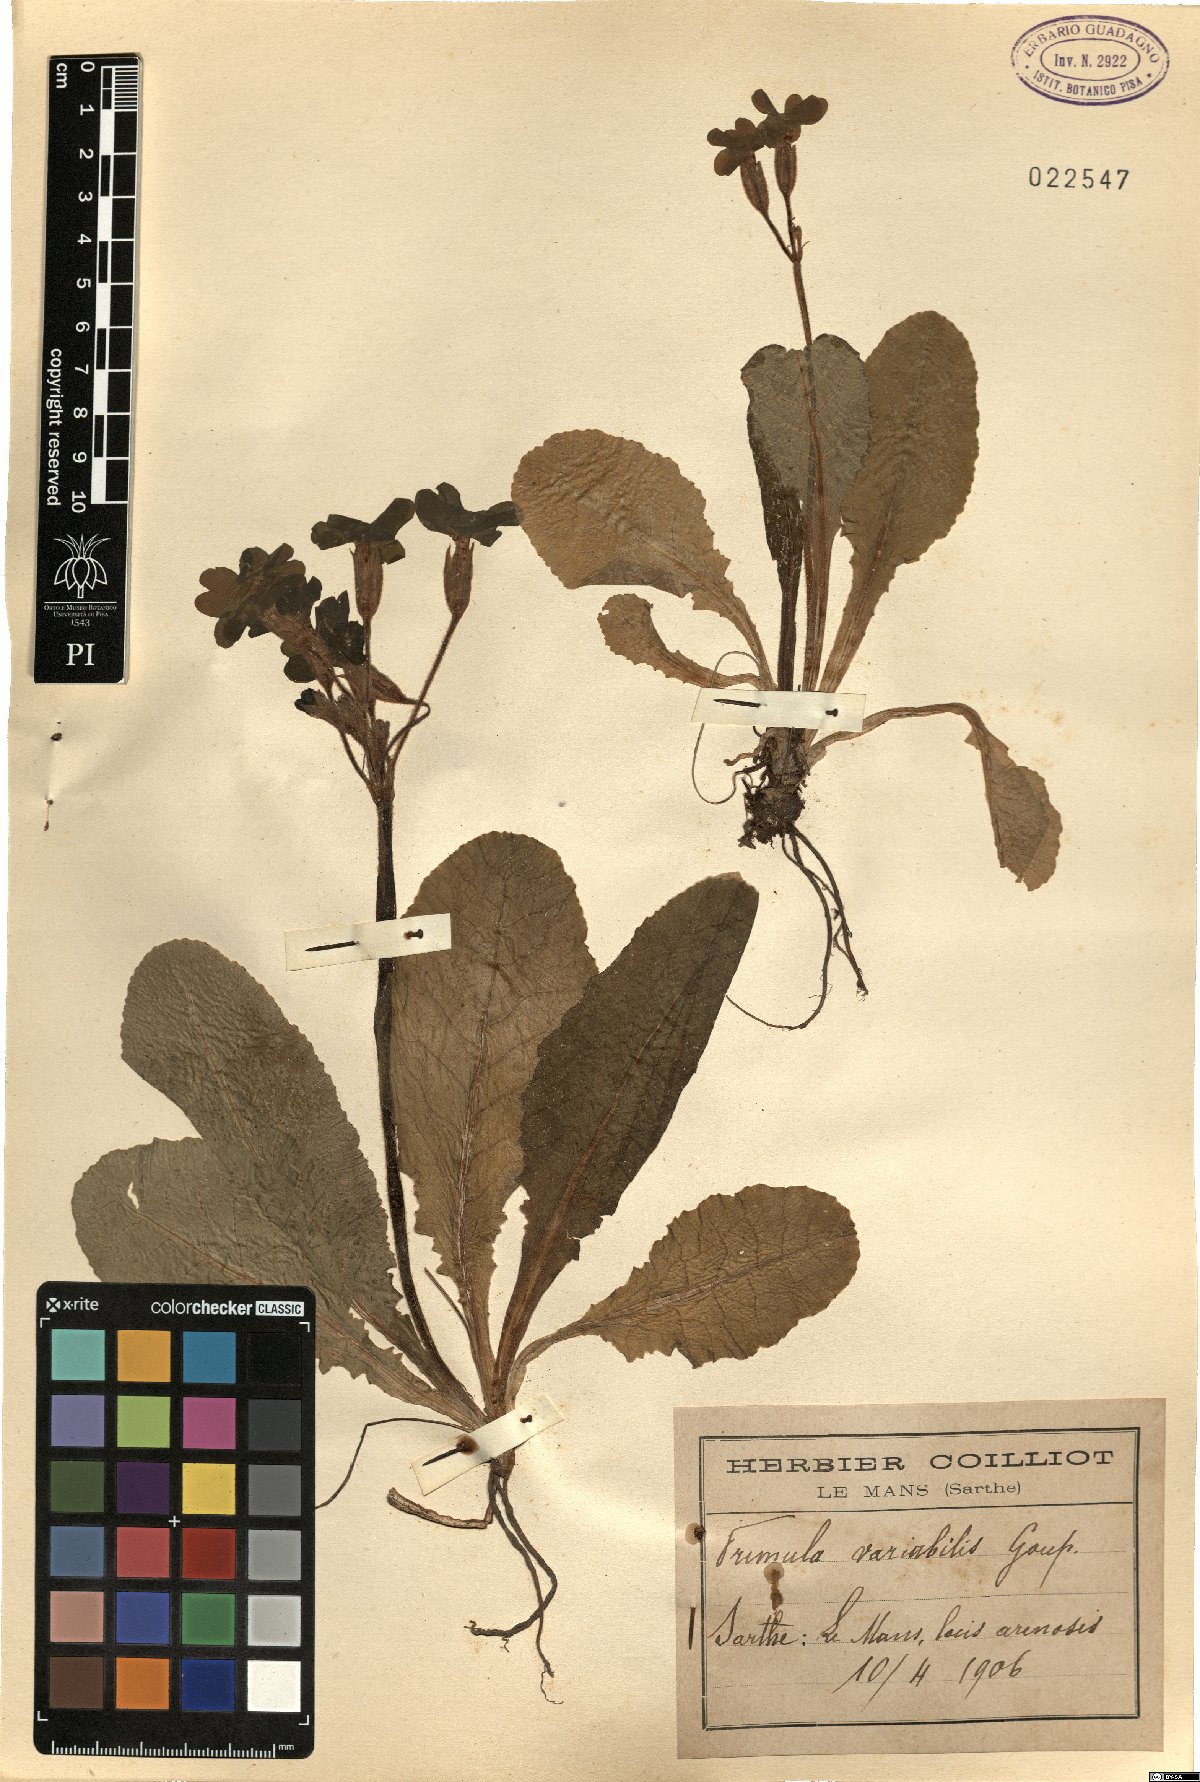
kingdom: Plantae
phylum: Tracheophyta
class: Magnoliopsida
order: Ericales
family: Primulaceae
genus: Primula
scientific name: Primula polyantha
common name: False oxlip
